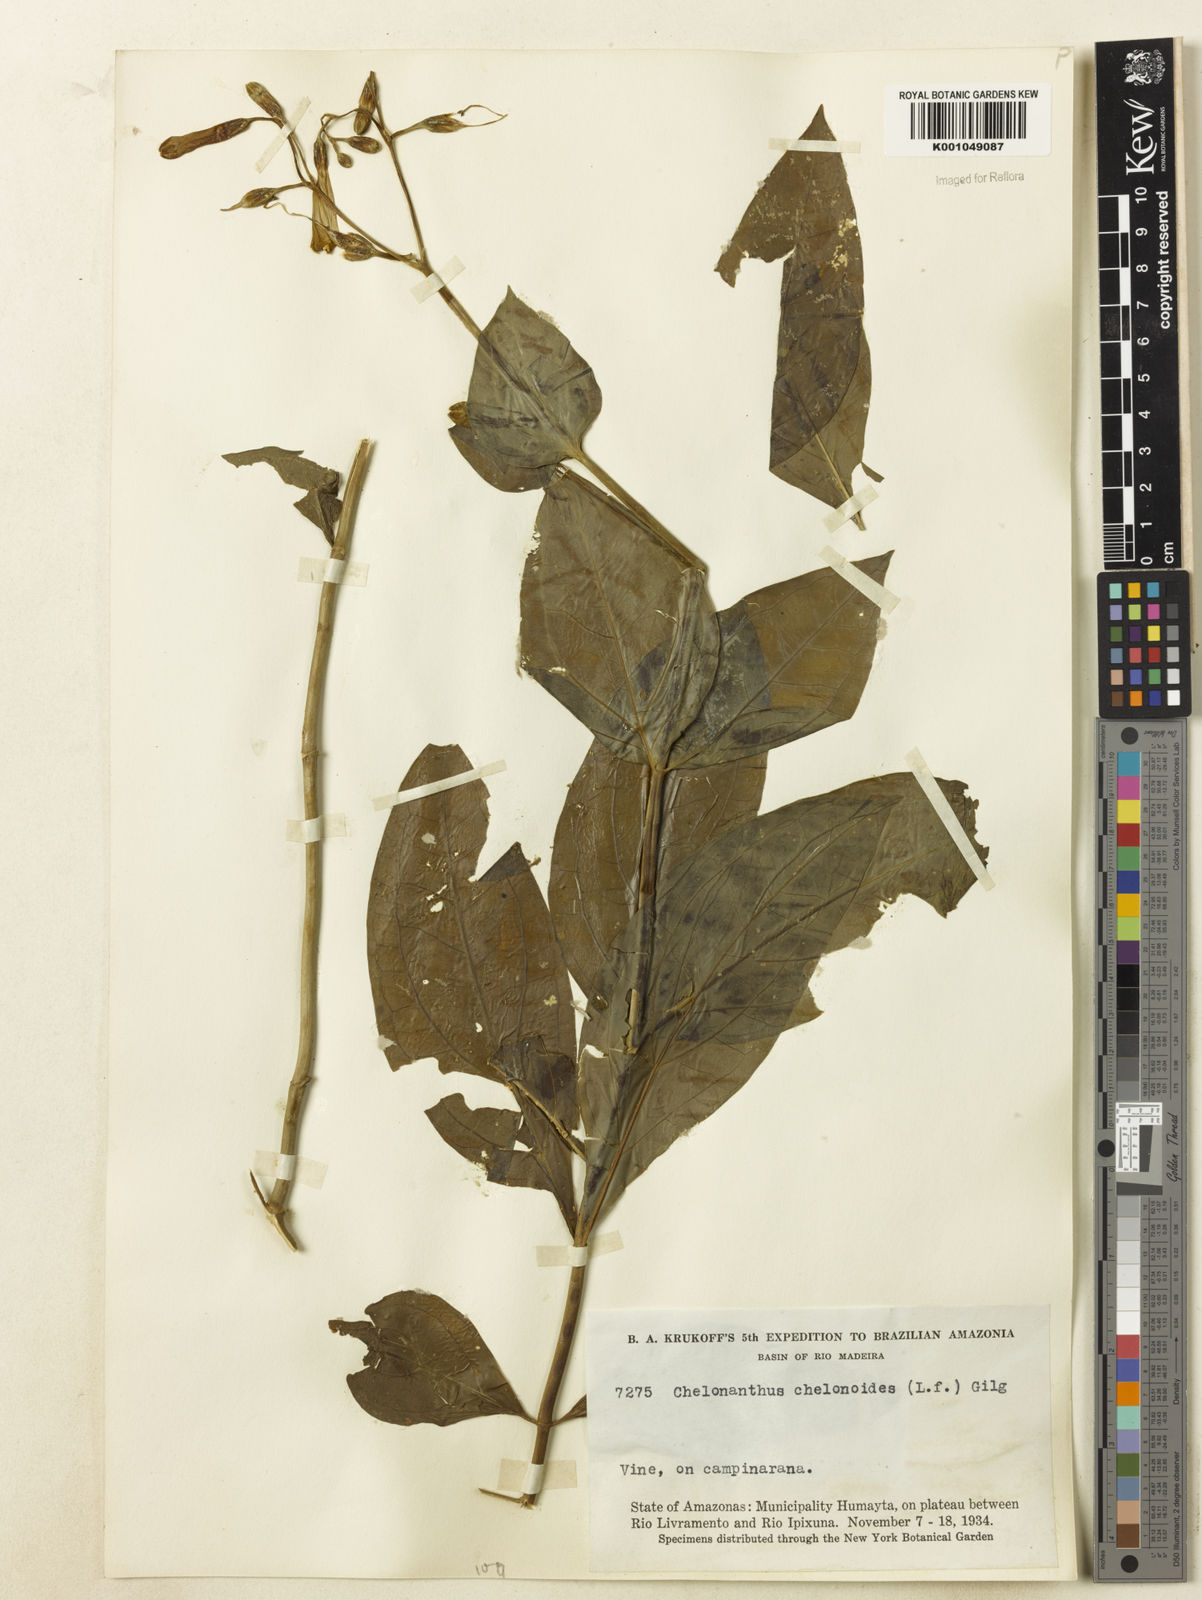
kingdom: Plantae
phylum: Tracheophyta
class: Magnoliopsida
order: Gentianales
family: Gentianaceae
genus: Chelonanthus
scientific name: Chelonanthus grandiflorus
